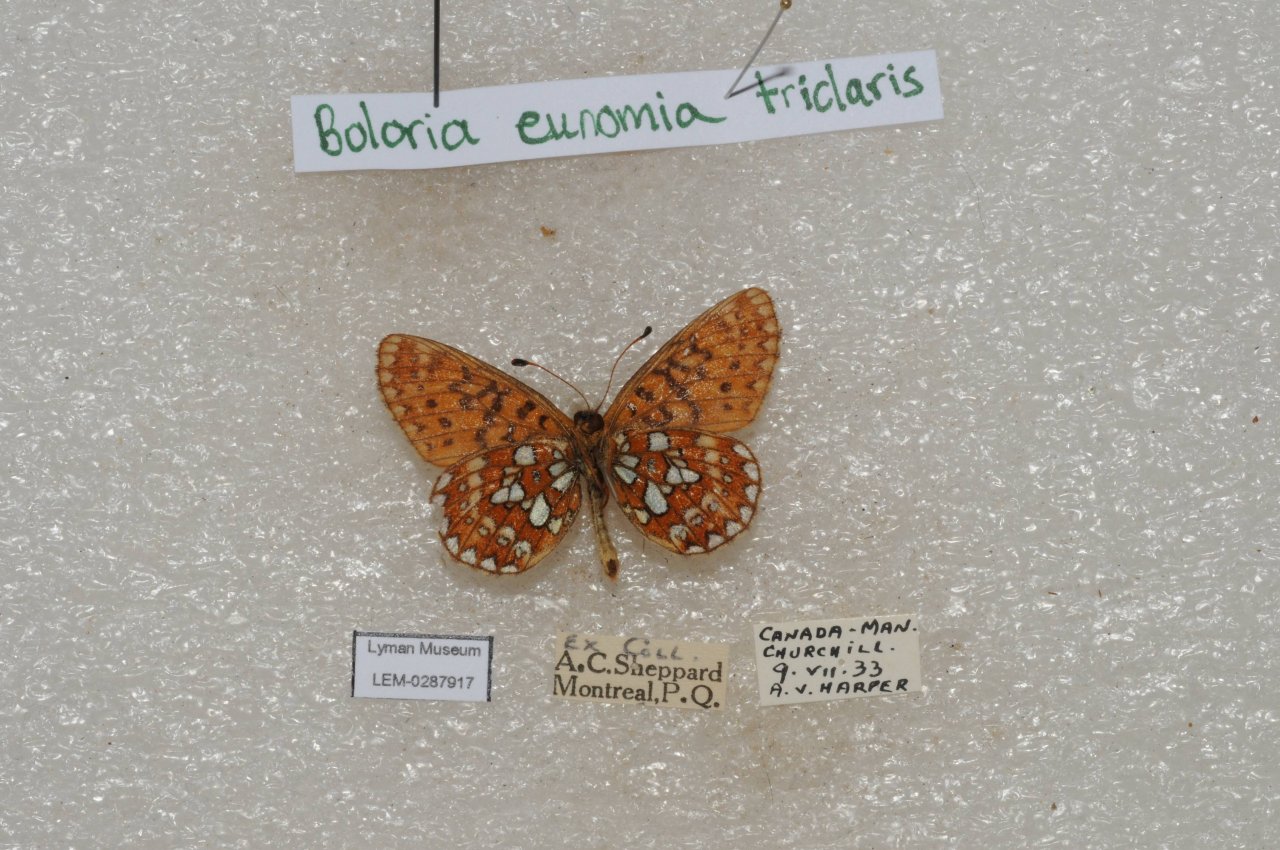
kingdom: Animalia
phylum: Arthropoda
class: Insecta
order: Lepidoptera
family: Nymphalidae
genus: Boloria
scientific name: Boloria eunomia
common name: Bog Fritillary
